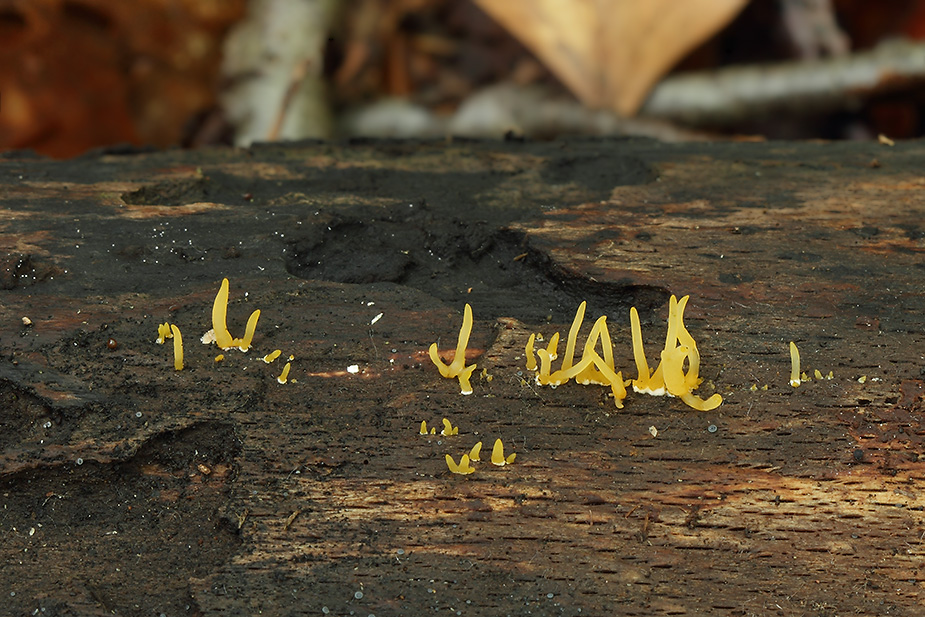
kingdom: Fungi
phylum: Basidiomycota
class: Dacrymycetes
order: Dacrymycetales
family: Dacrymycetaceae
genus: Calocera
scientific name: Calocera cornea
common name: liden guldgaffel
